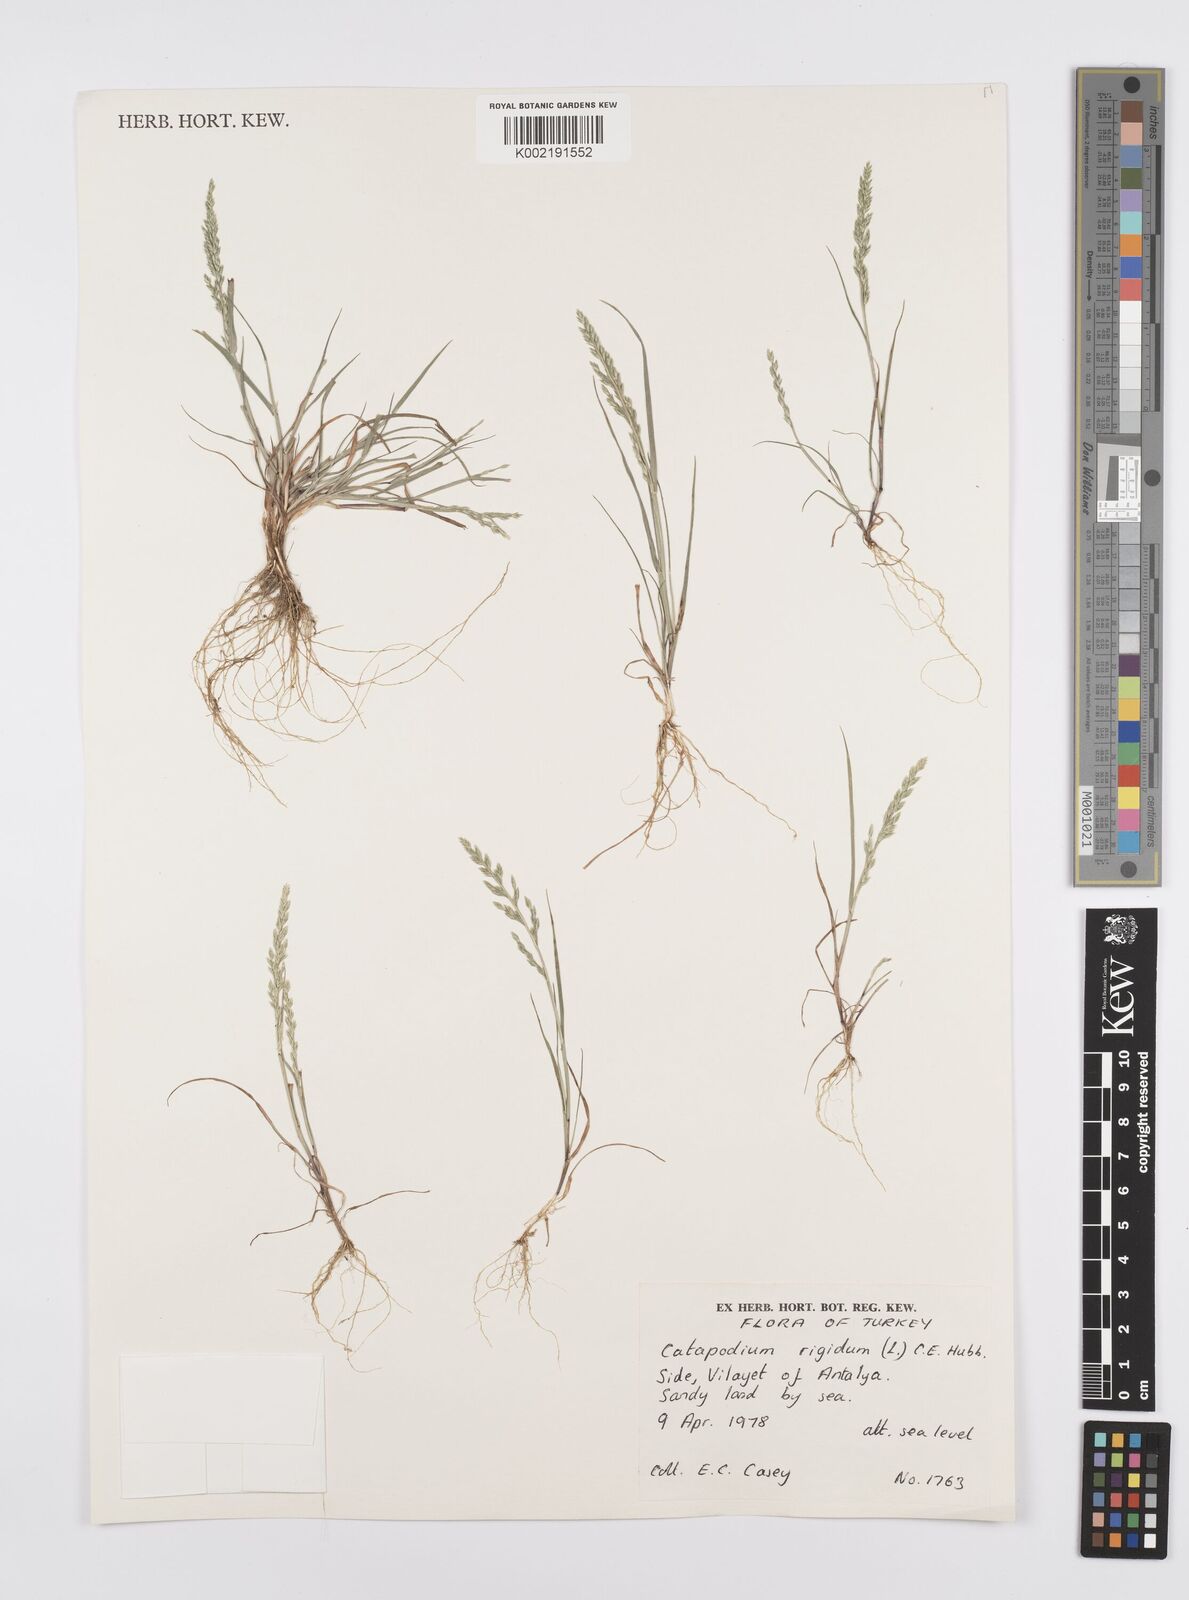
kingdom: Plantae
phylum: Tracheophyta
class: Liliopsida
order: Poales
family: Poaceae
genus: Catapodium
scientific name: Catapodium rigidum
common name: Fern-grass
